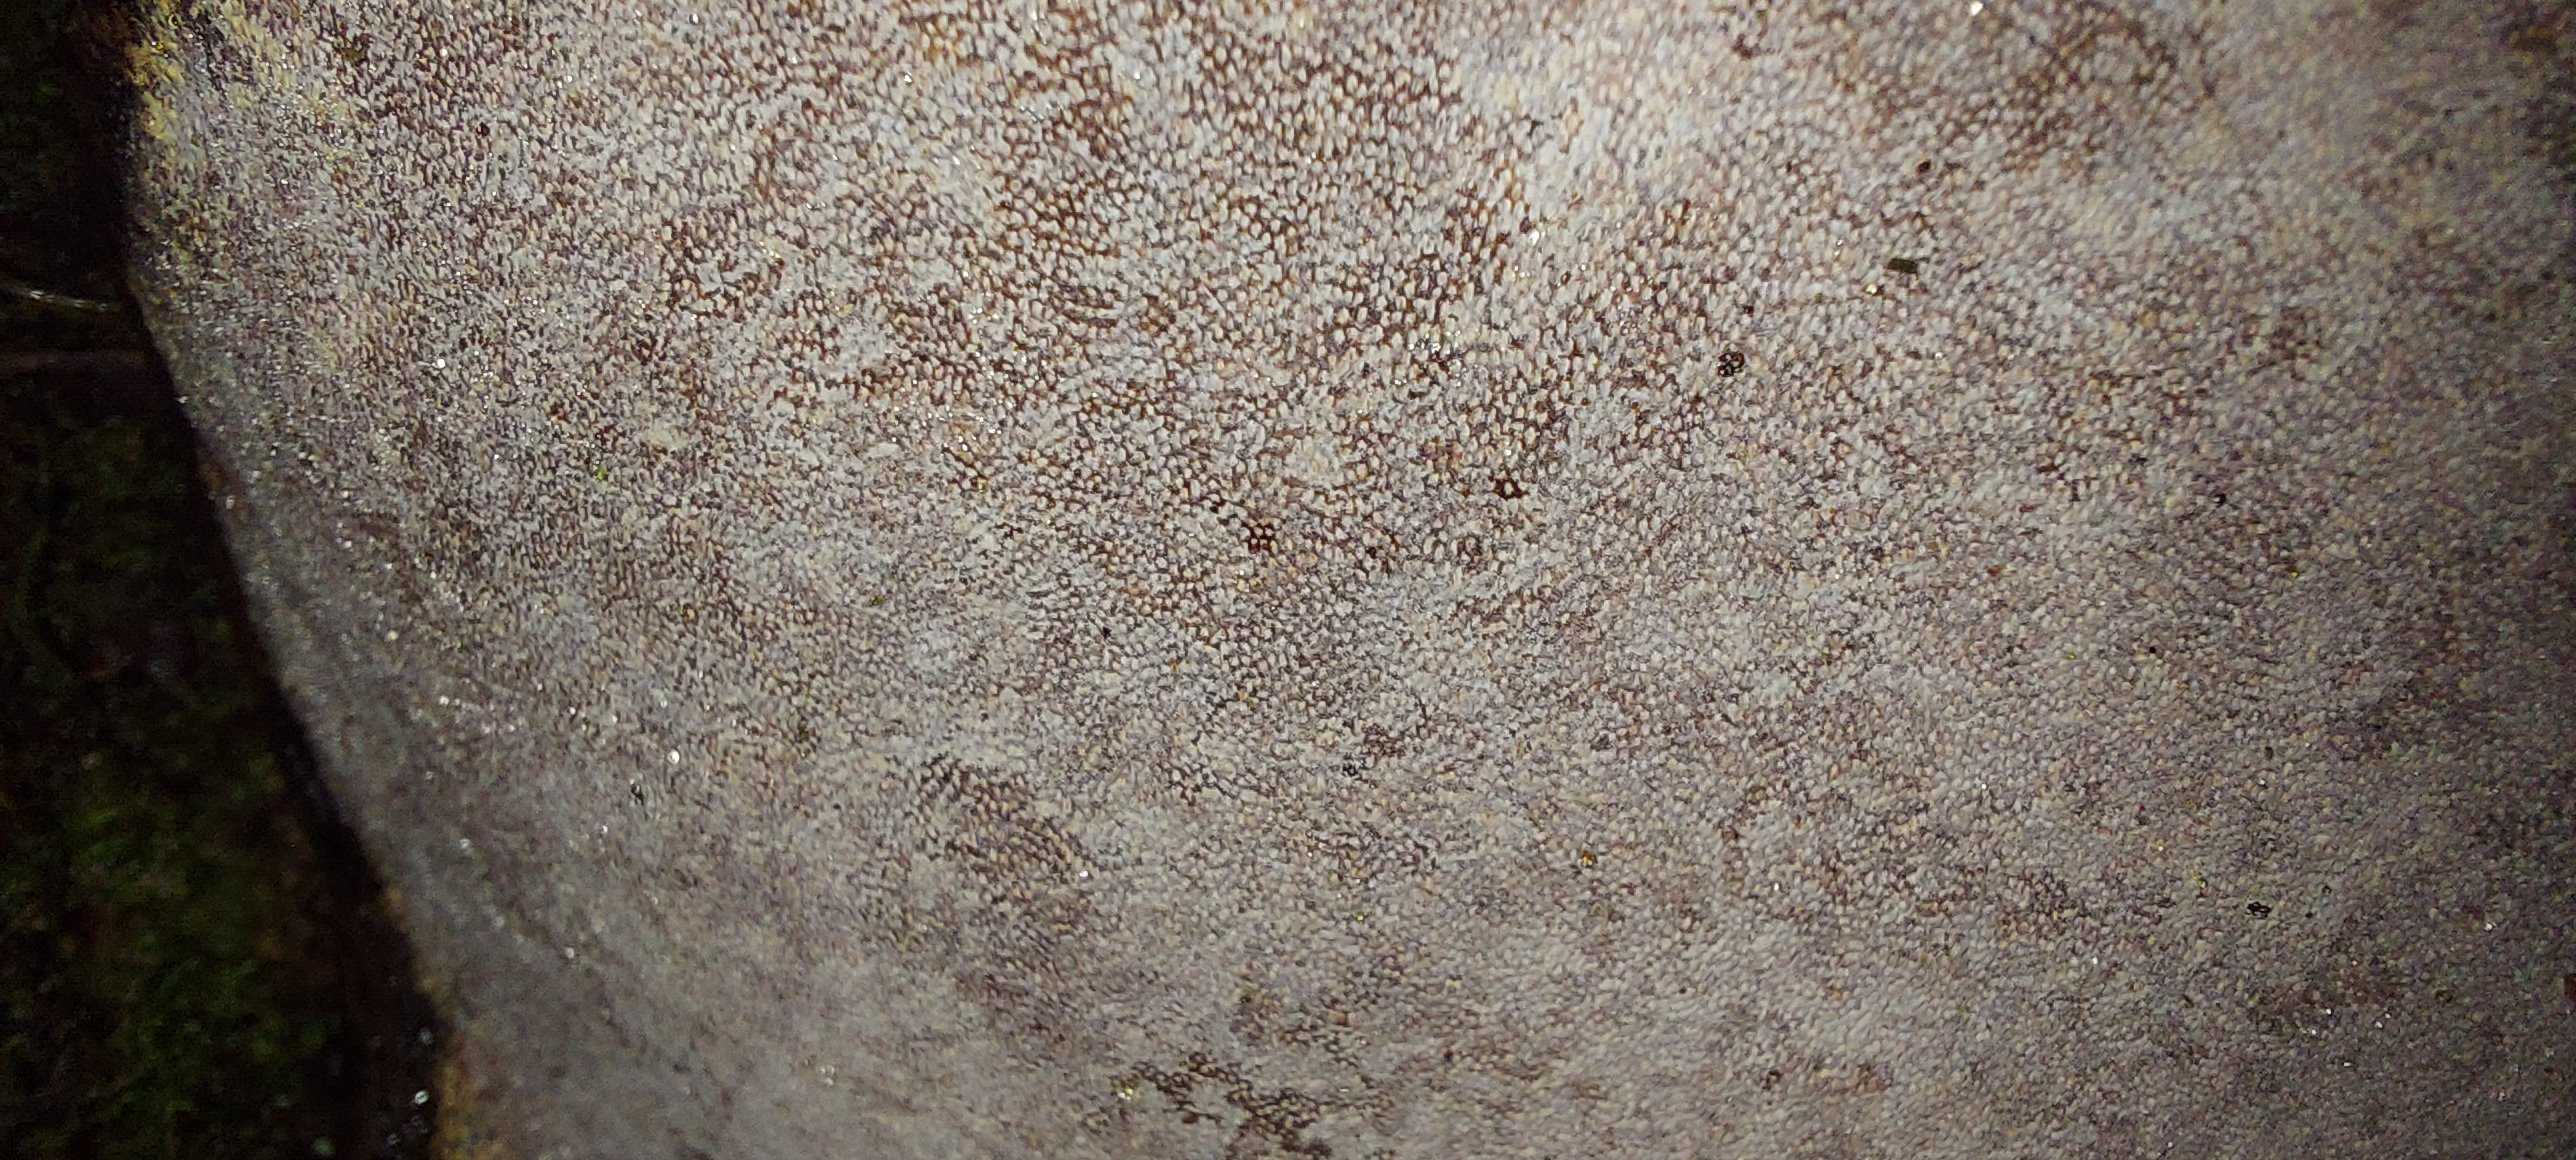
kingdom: Fungi
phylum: Basidiomycota
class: Agaricomycetes
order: Polyporales
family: Polyporaceae
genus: Ganoderma
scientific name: Ganoderma applanatum
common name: flad lakporesvamp
